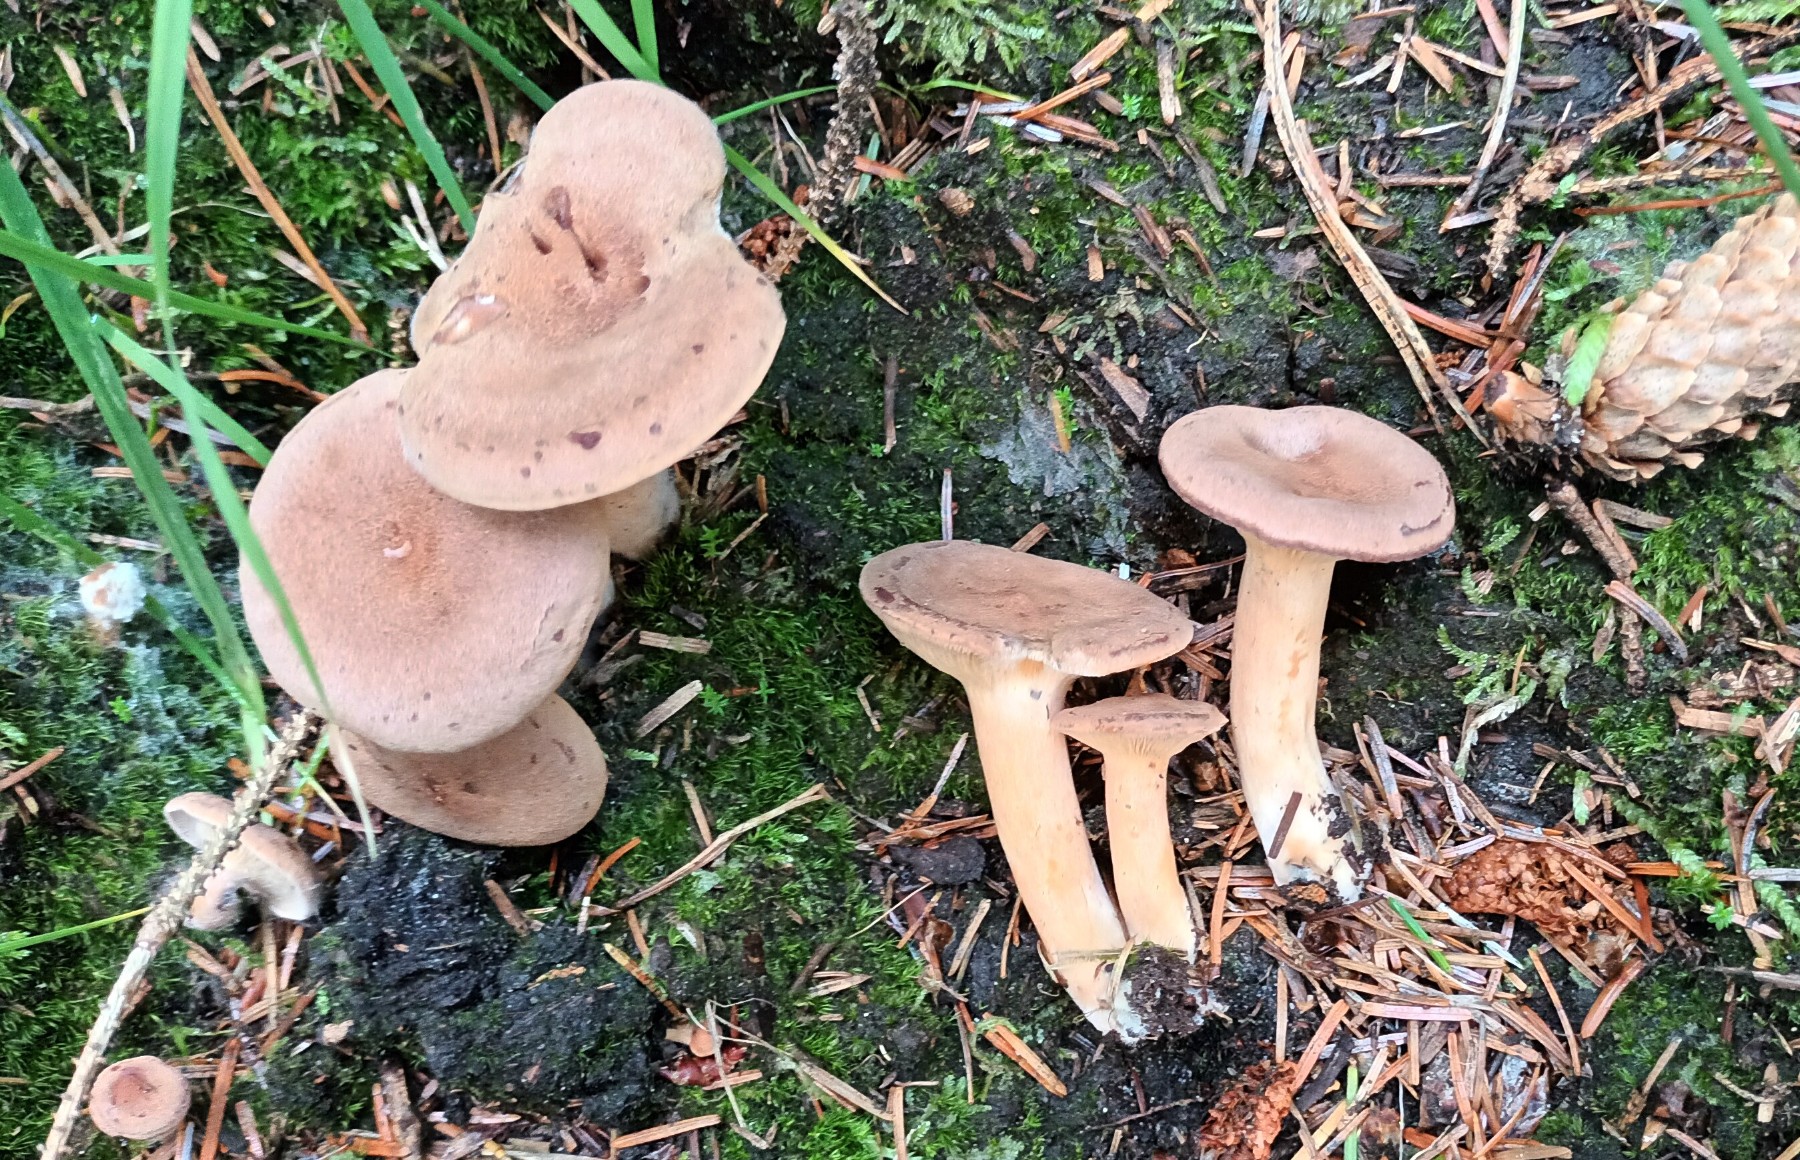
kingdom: Fungi
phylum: Basidiomycota
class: Agaricomycetes
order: Russulales
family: Russulaceae
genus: Lactarius
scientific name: Lactarius helvus
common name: mose-mælkehat
